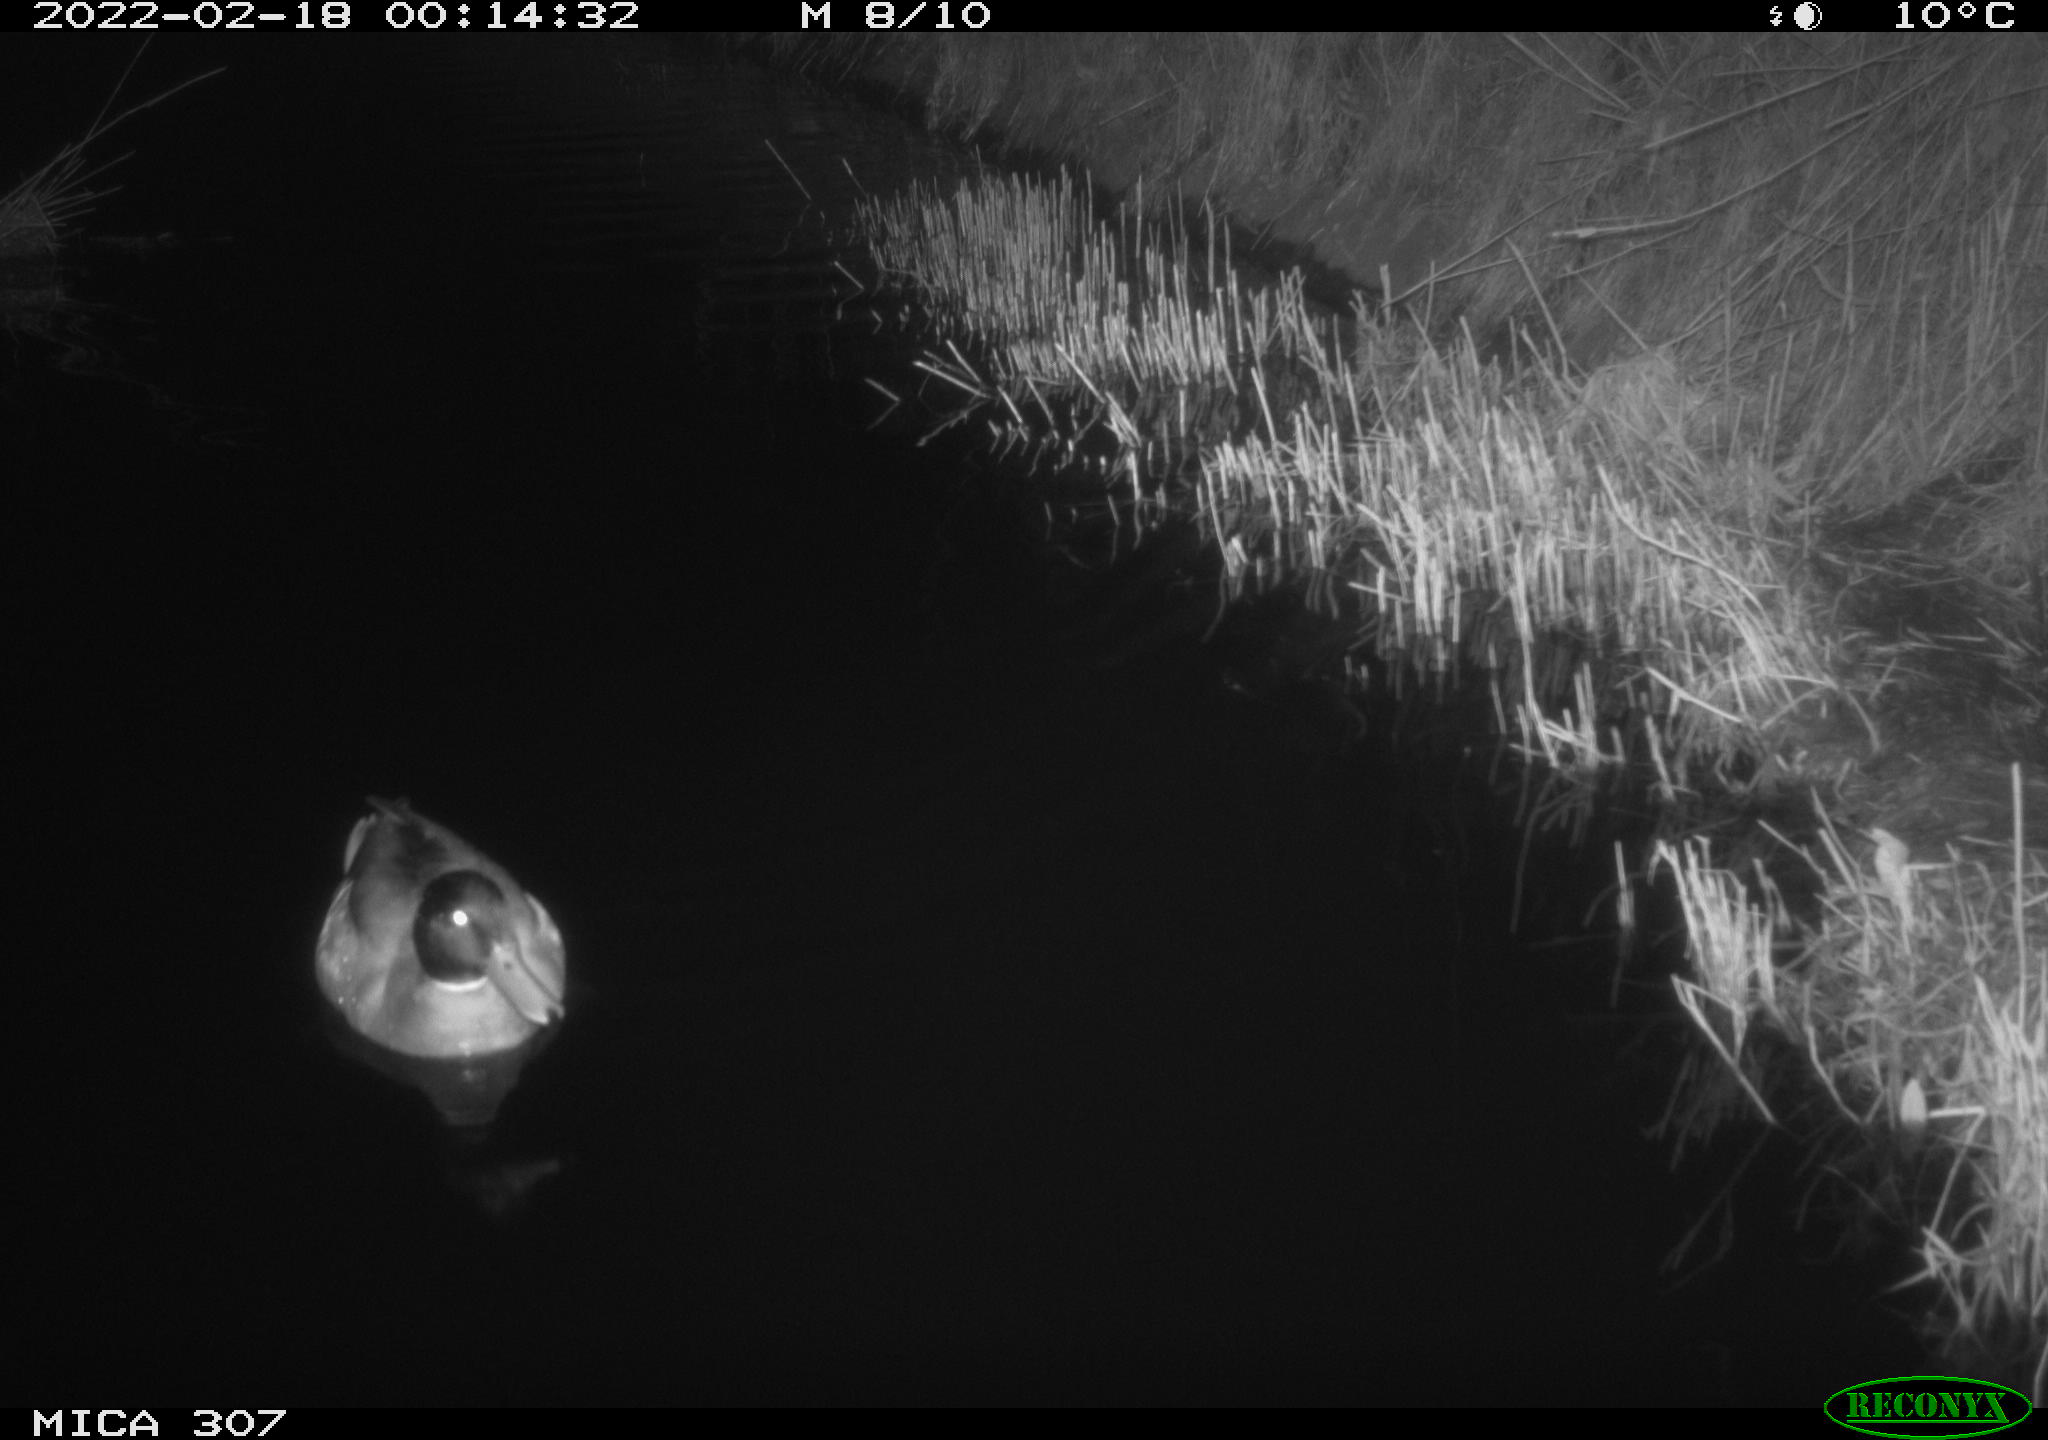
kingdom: Animalia
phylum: Chordata
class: Aves
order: Anseriformes
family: Anatidae
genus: Anas
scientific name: Anas platyrhynchos
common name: Mallard
